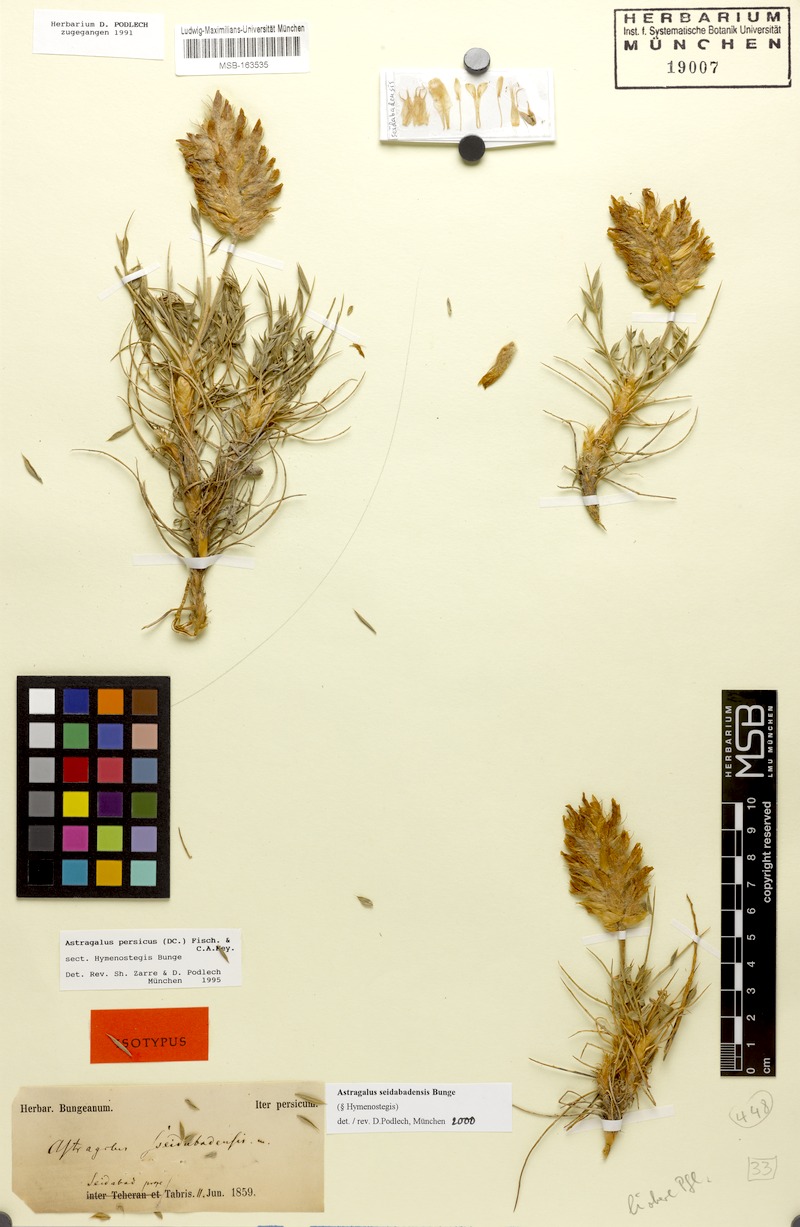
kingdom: Plantae
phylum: Tracheophyta
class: Magnoliopsida
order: Fabales
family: Fabaceae
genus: Astragalus
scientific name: Astragalus seidabadensis
